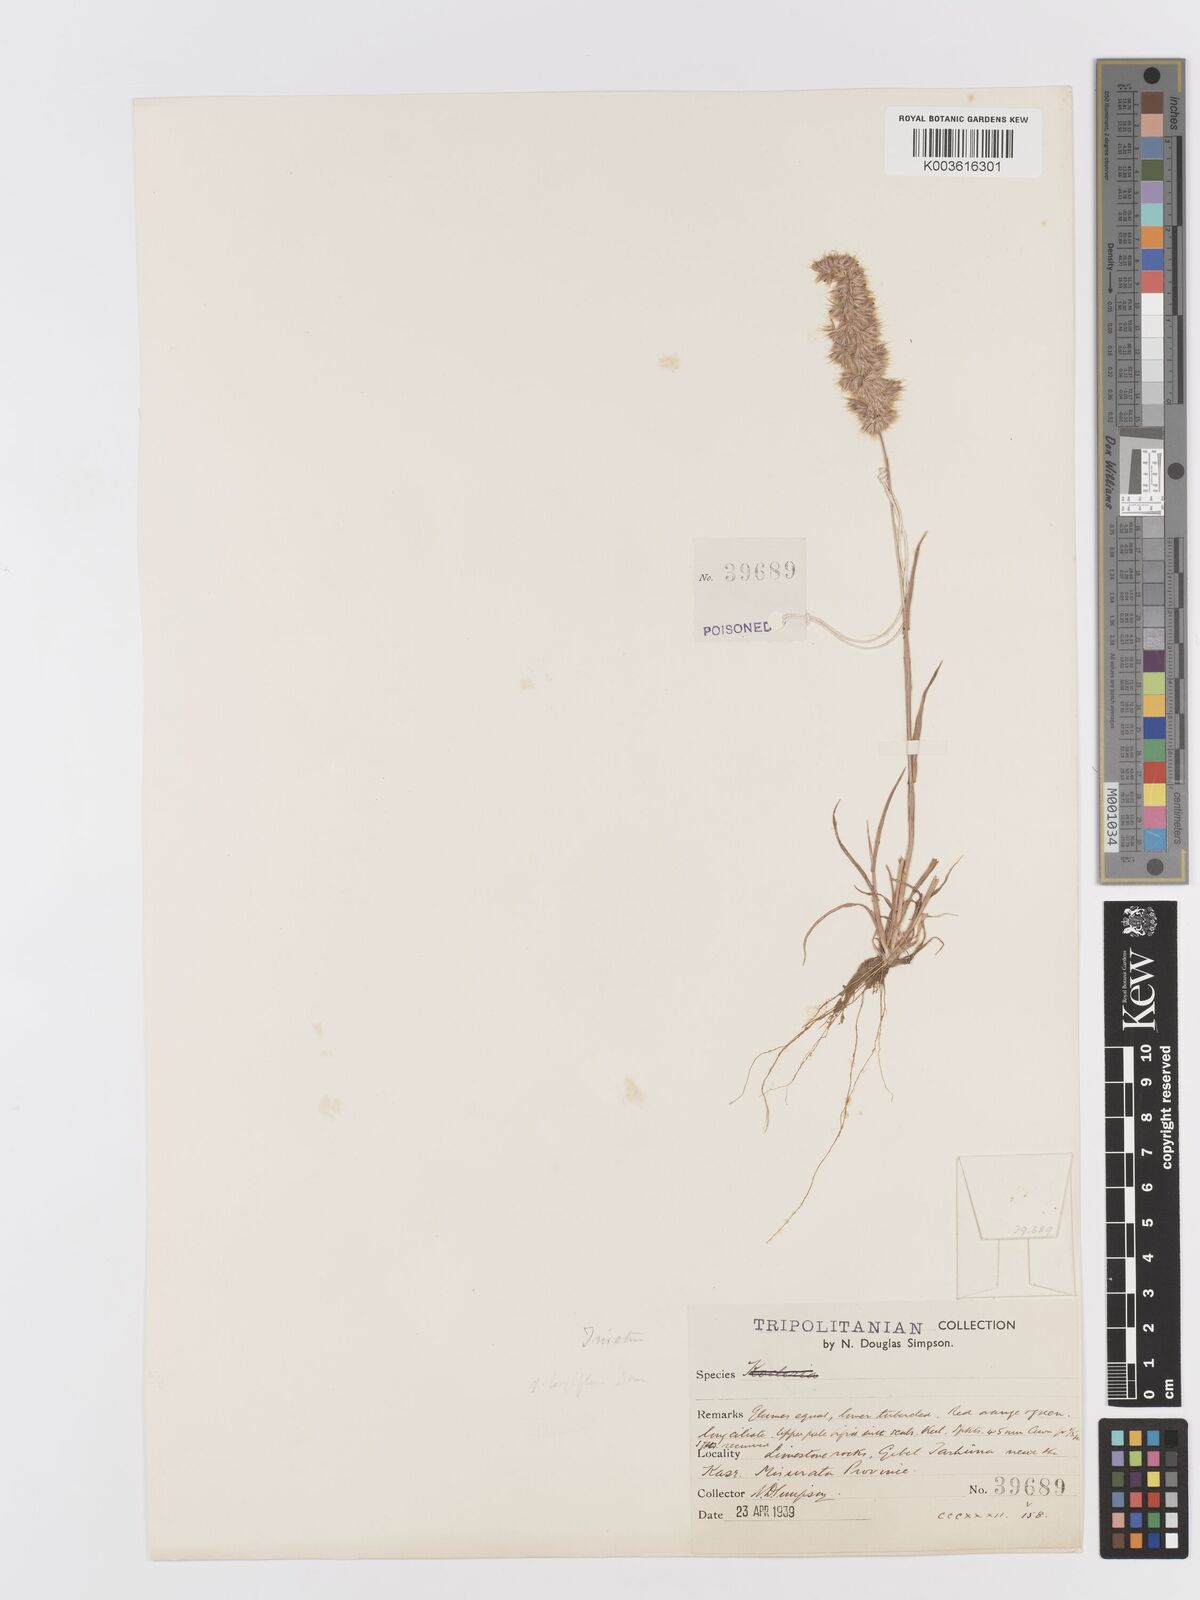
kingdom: Plantae
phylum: Tracheophyta
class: Liliopsida
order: Poales
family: Poaceae
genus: Trisetaria
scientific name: Trisetaria panicea
